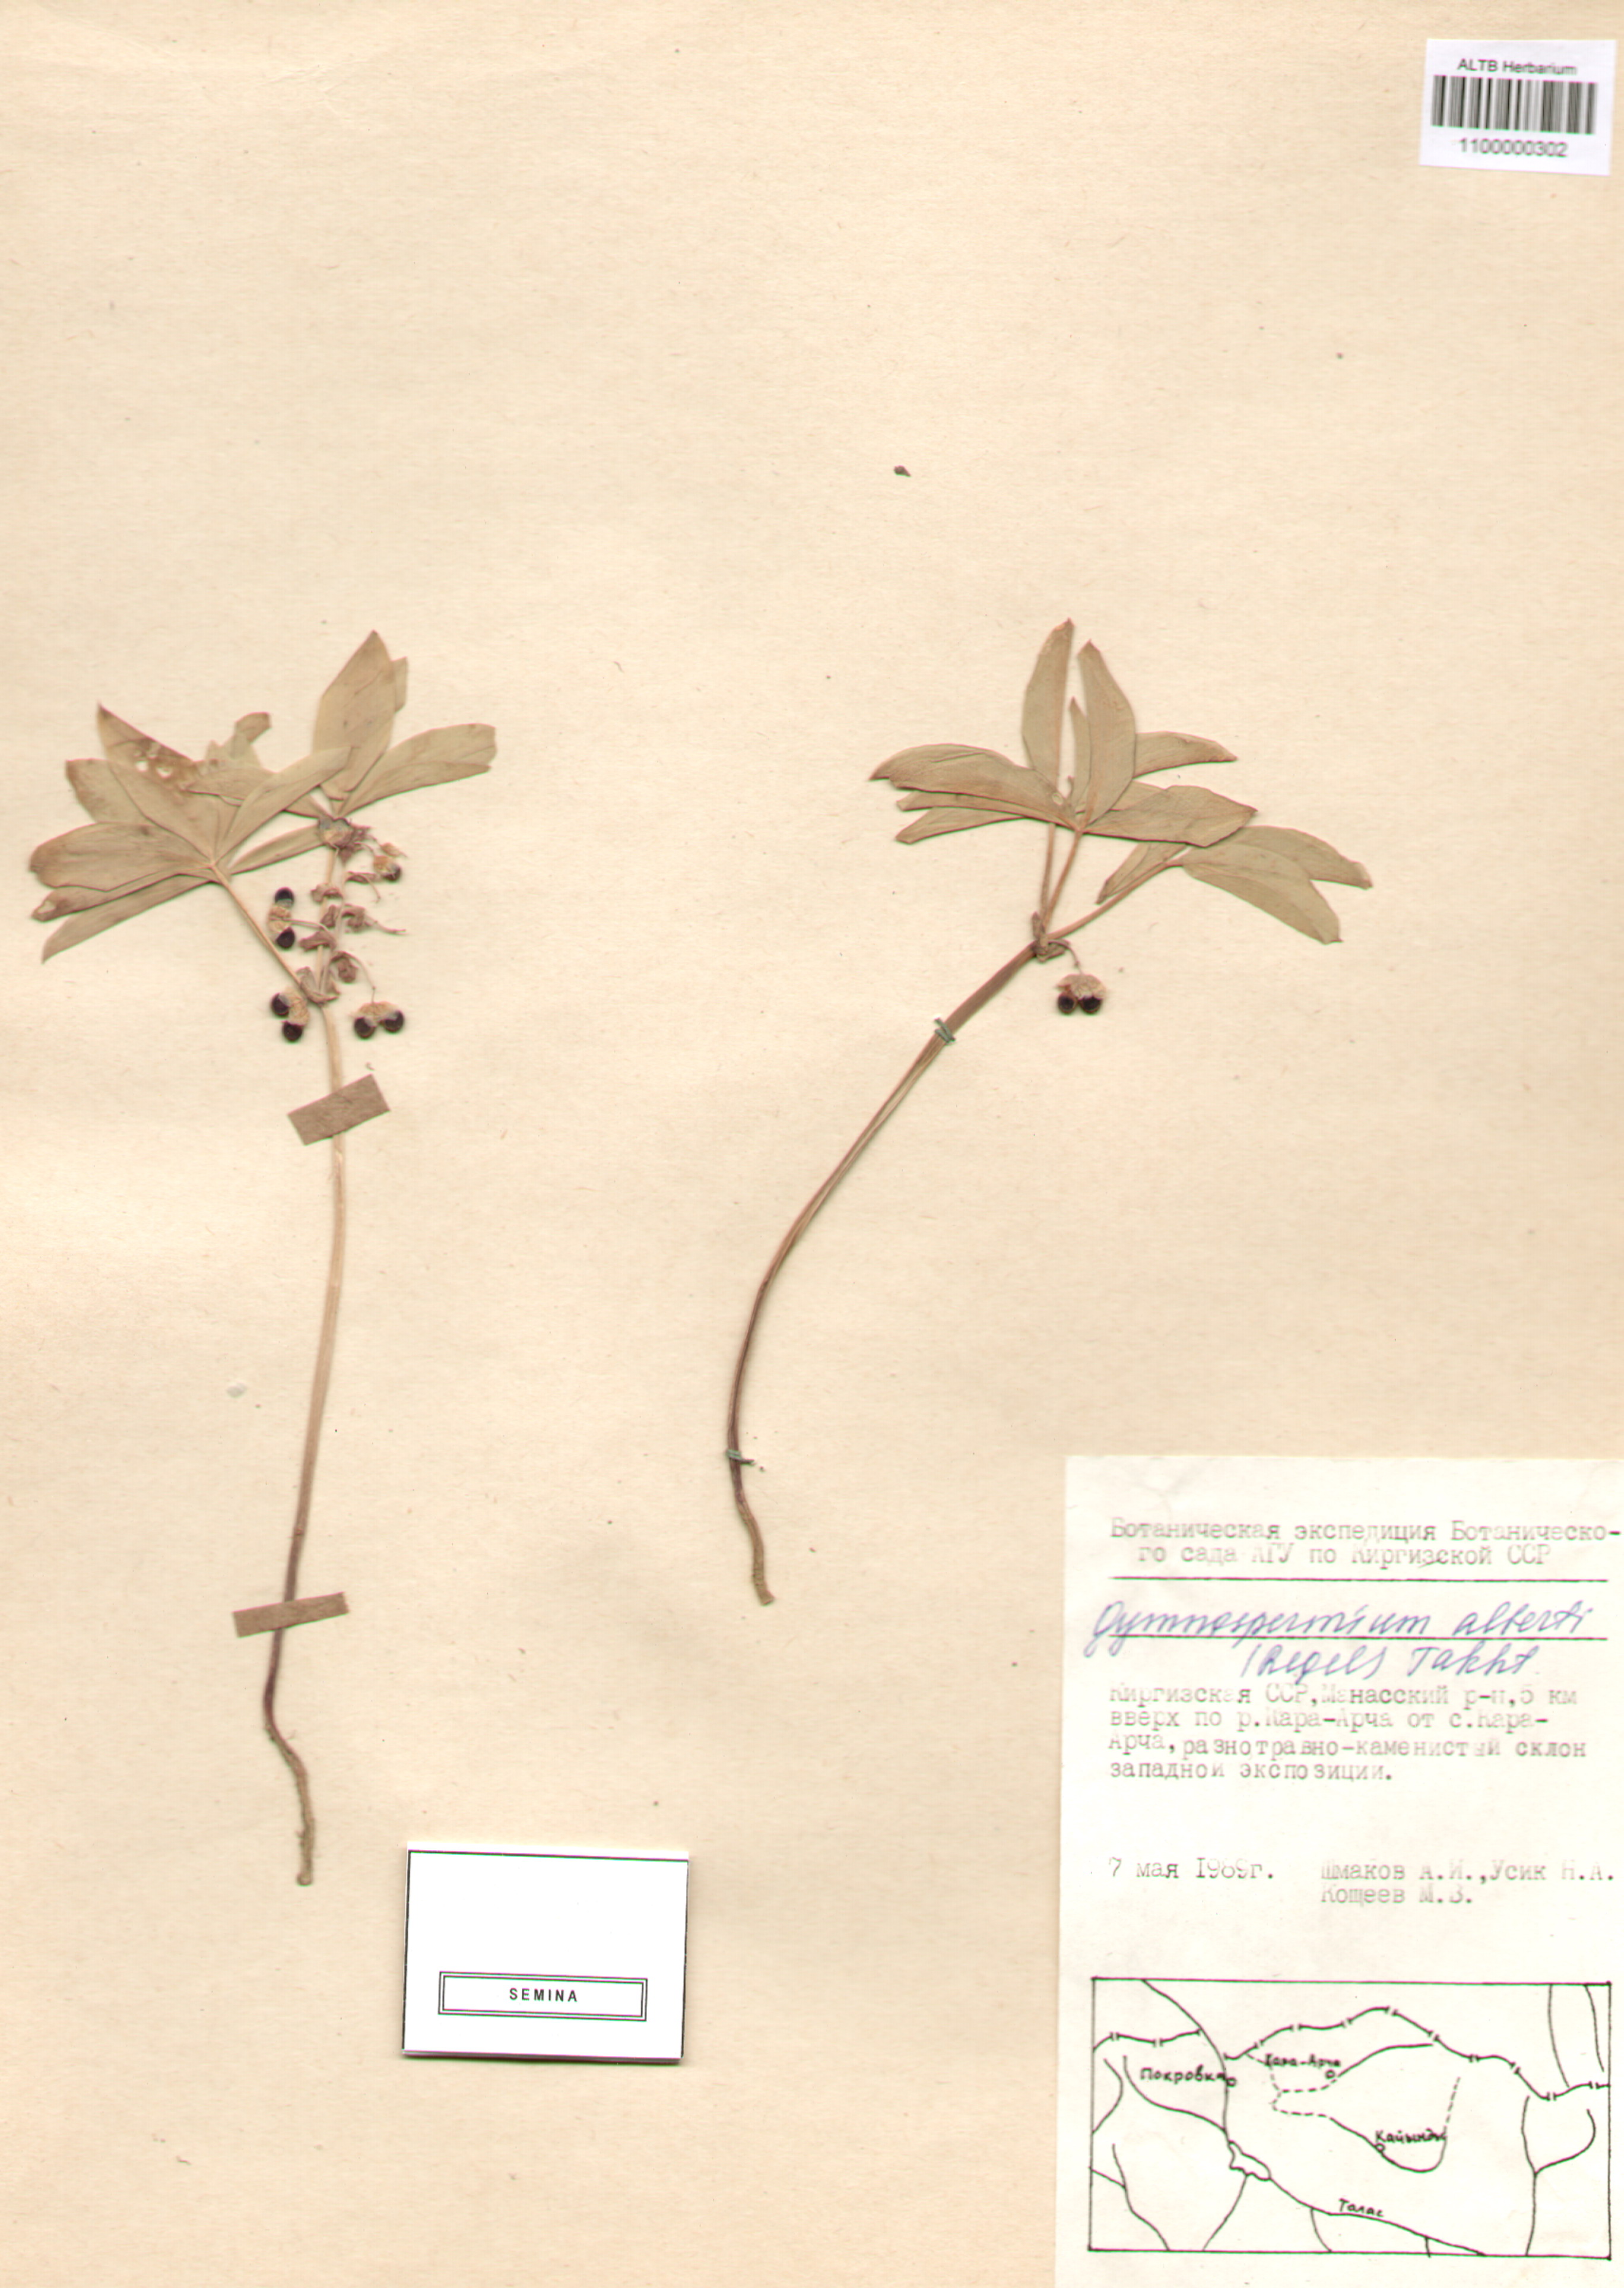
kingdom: Plantae
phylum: Tracheophyta
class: Magnoliopsida
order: Ranunculales
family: Berberidaceae
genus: Gymnospermium
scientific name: Gymnospermium alberti
